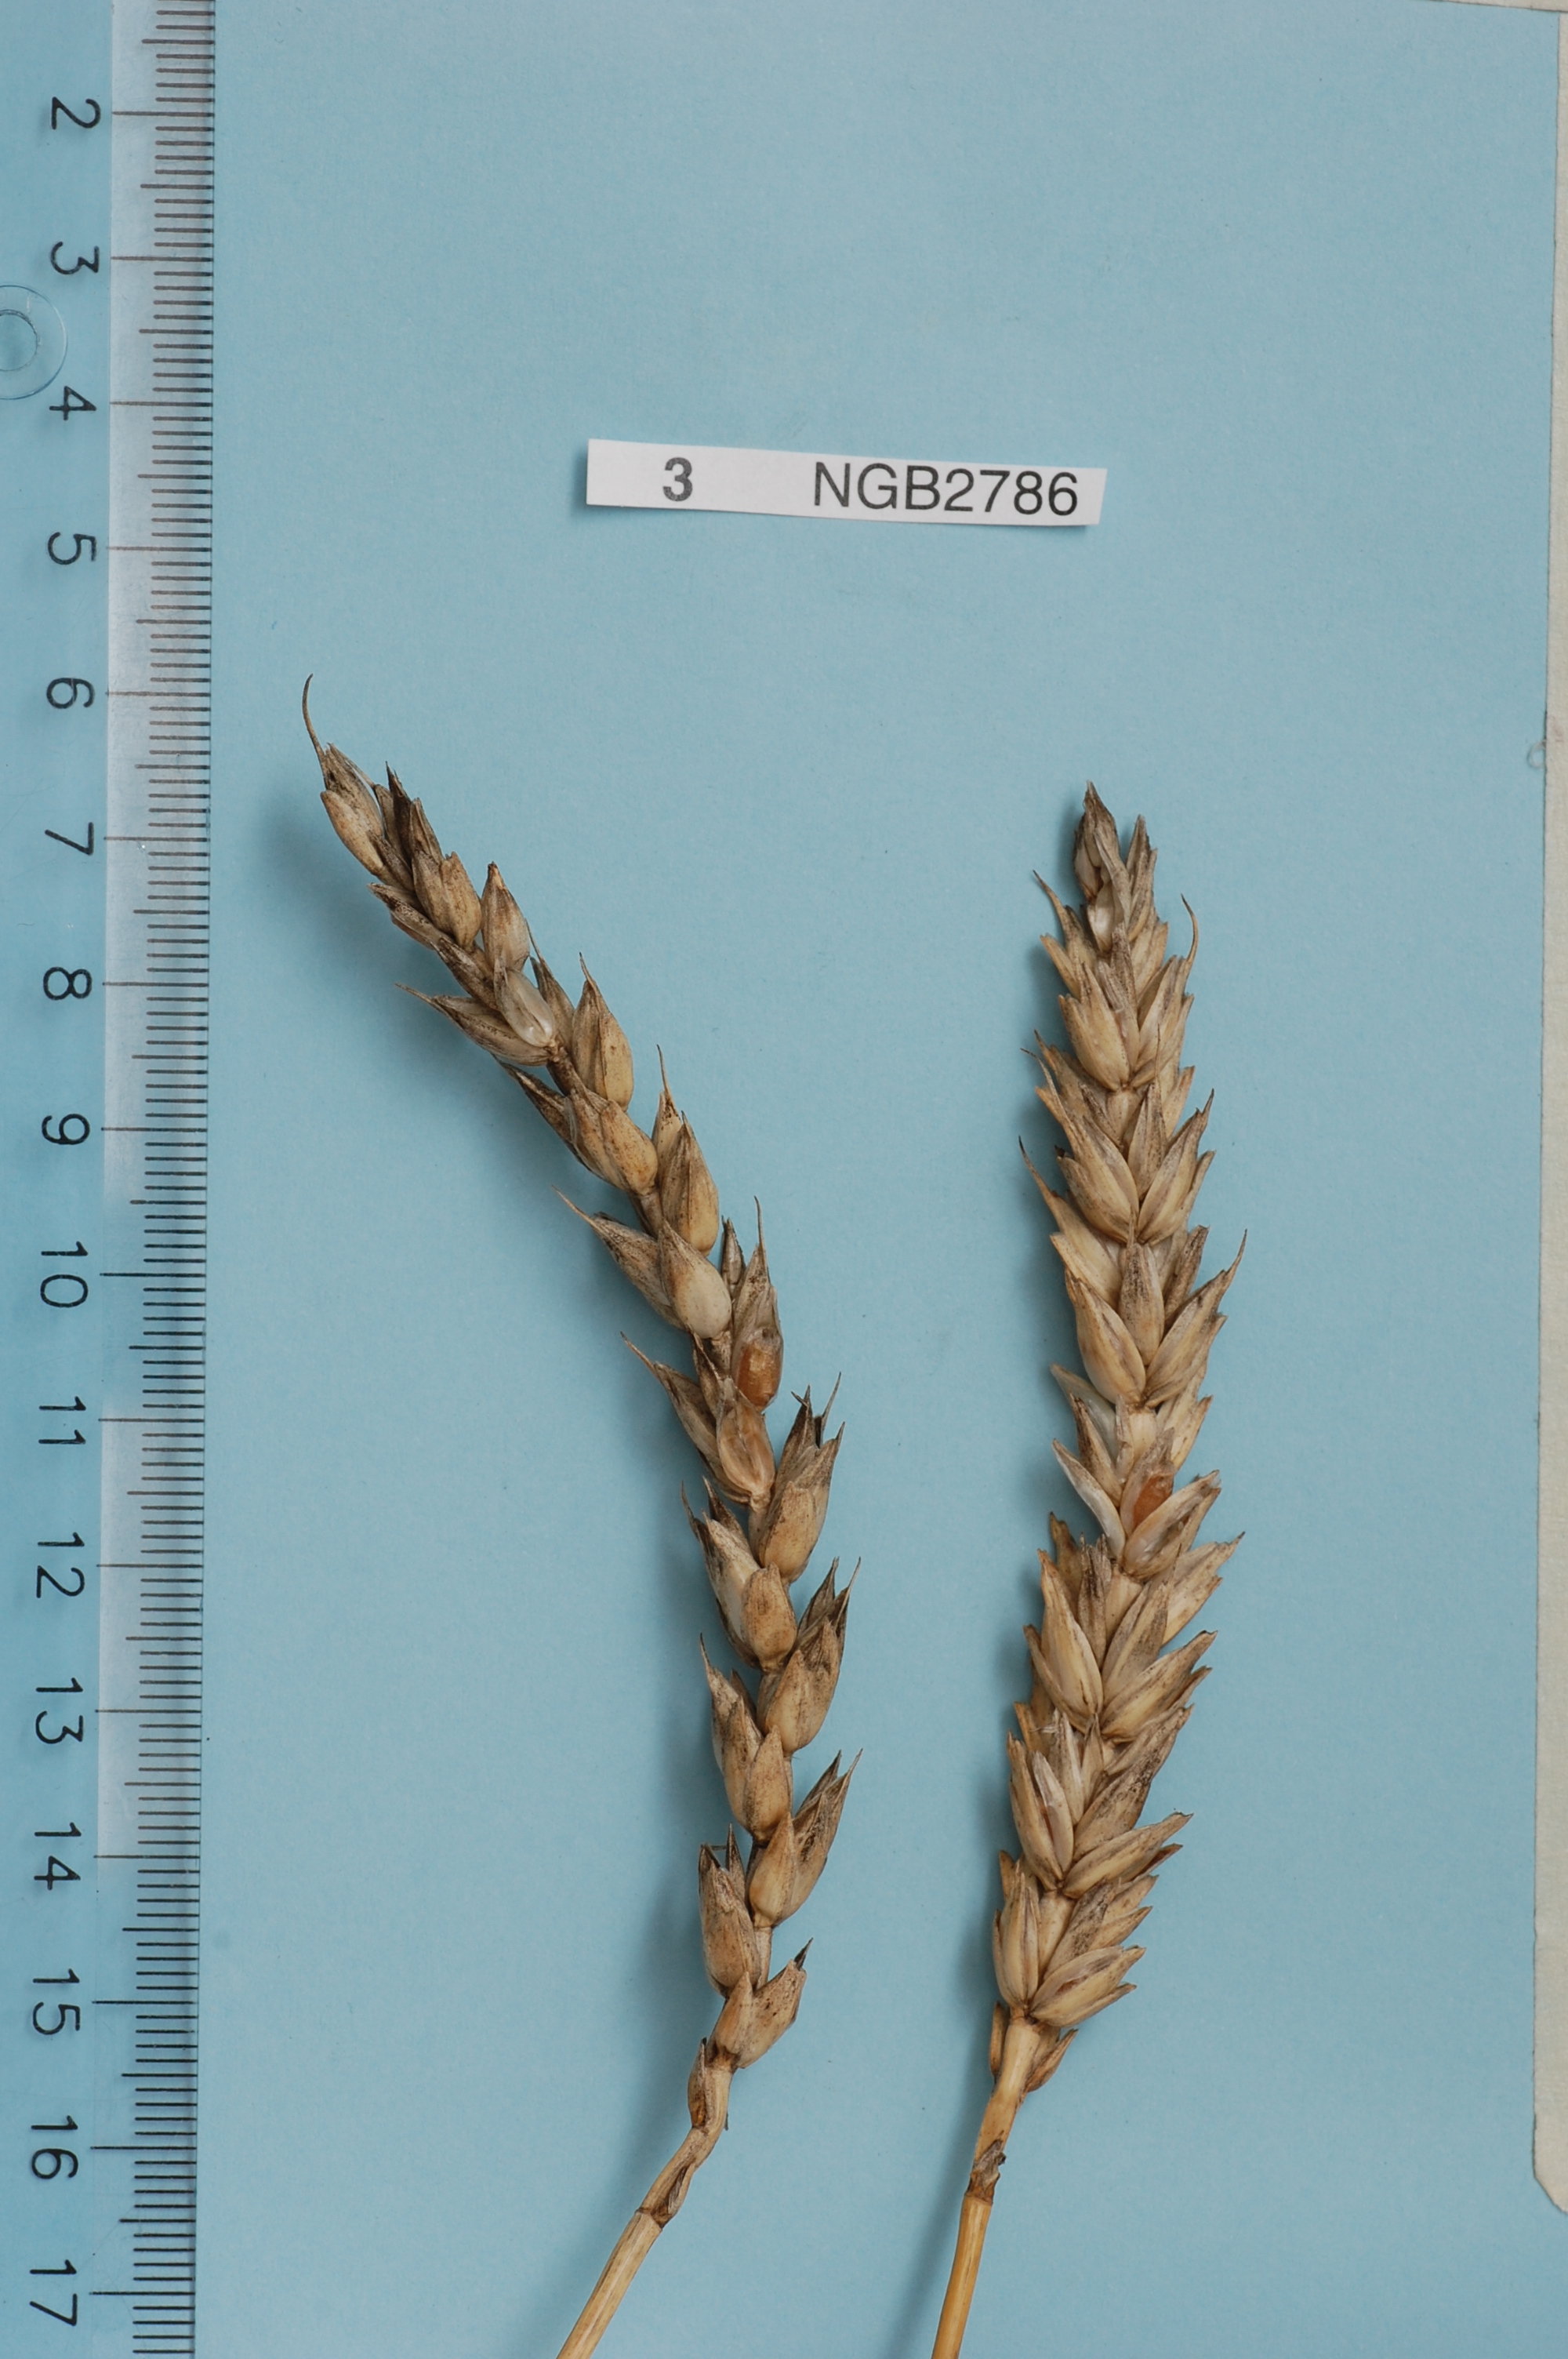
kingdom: Plantae
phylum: Tracheophyta
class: Liliopsida
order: Poales
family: Poaceae
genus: Triticum
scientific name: Triticum aestivum
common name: Common wheat
